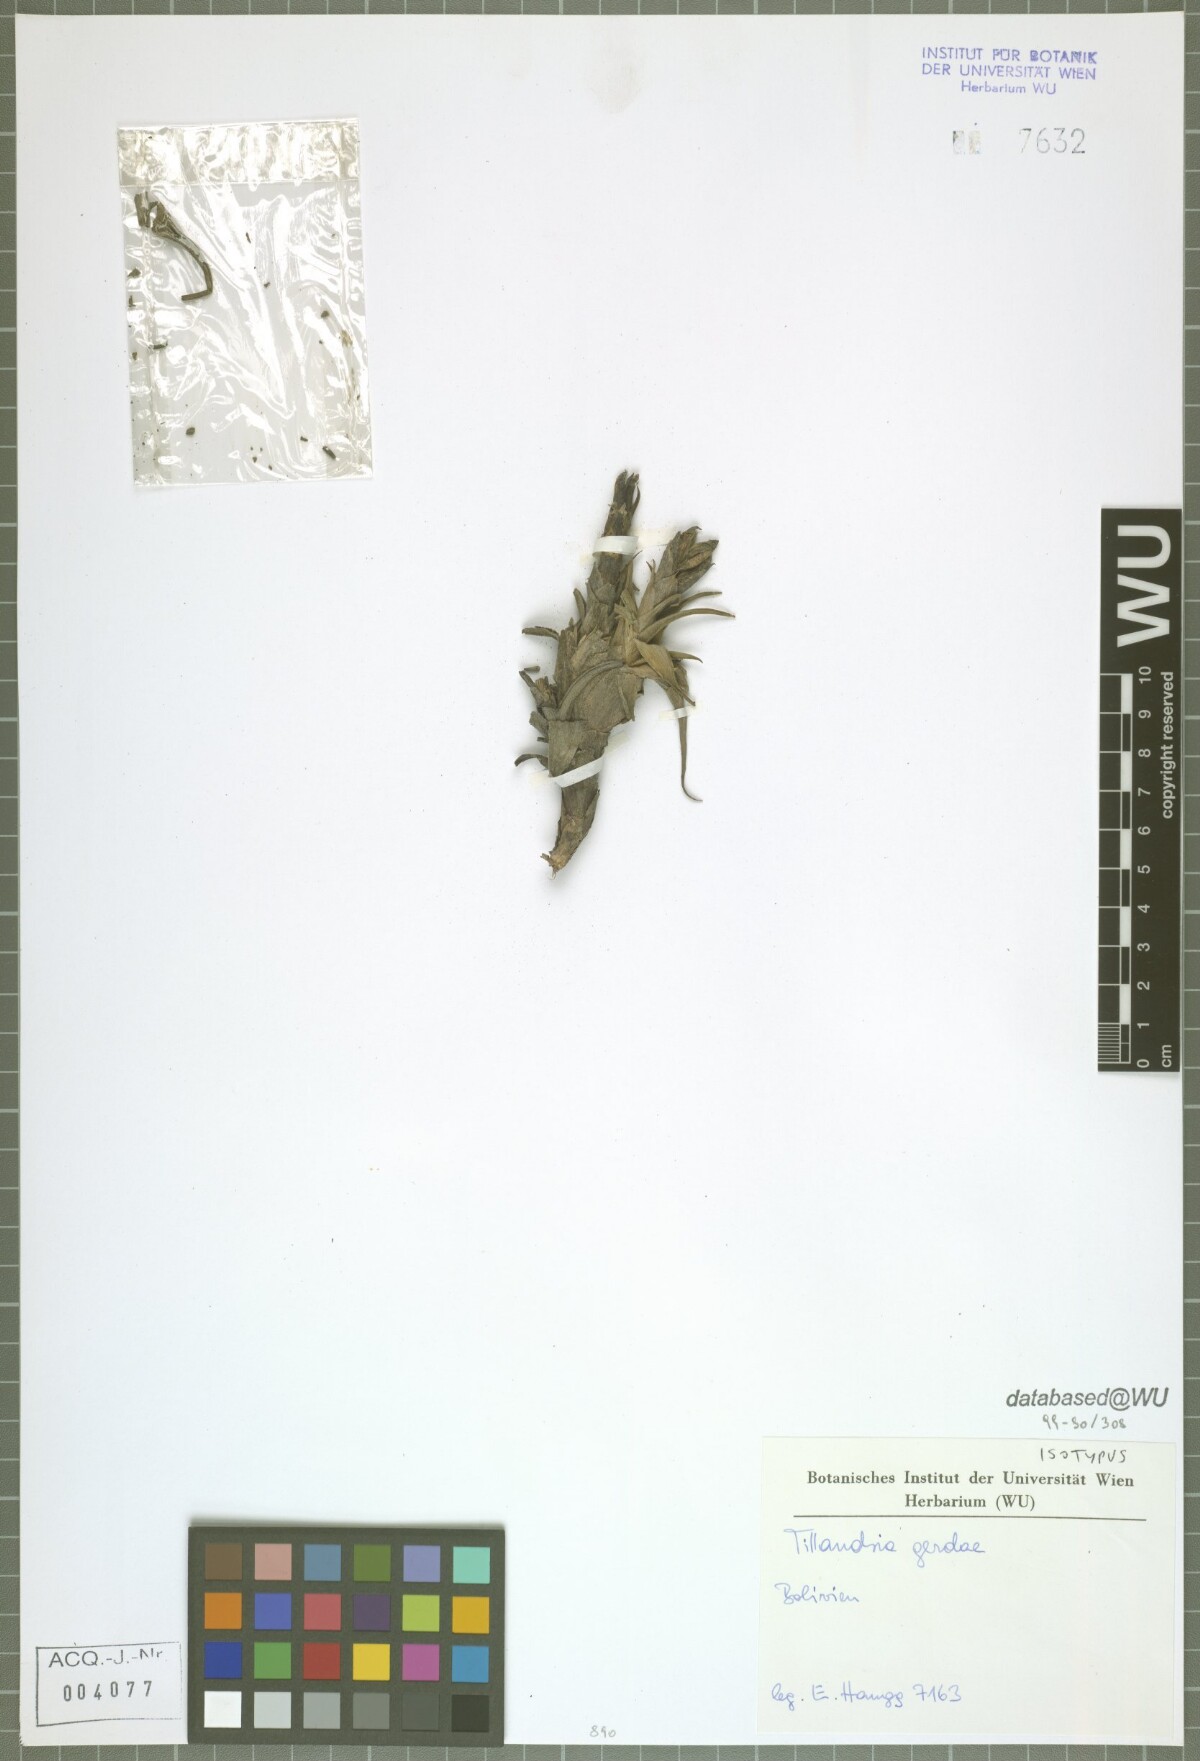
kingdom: Plantae
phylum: Tracheophyta
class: Liliopsida
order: Poales
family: Bromeliaceae
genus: Tillandsia
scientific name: Tillandsia gerdae
